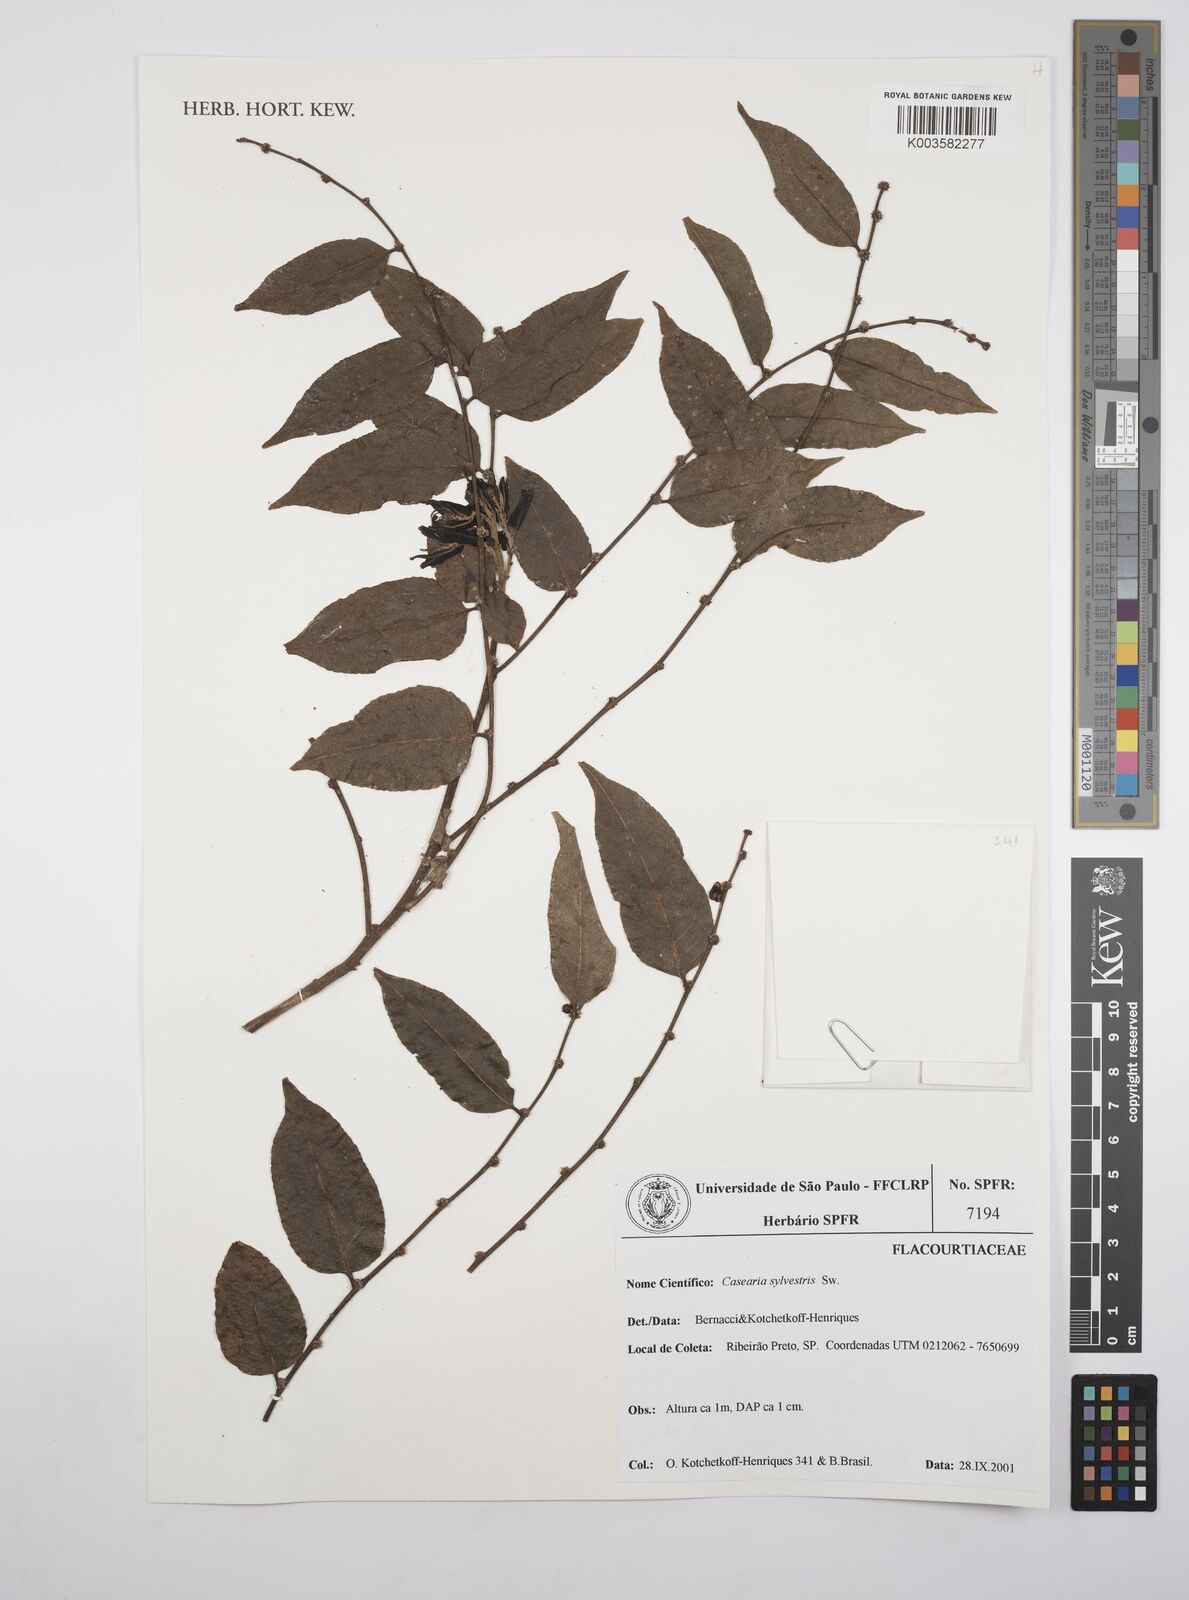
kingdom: Plantae
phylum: Tracheophyta
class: Magnoliopsida
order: Malpighiales
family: Salicaceae
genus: Casearia
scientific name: Casearia sylvestris
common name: Wild sage
